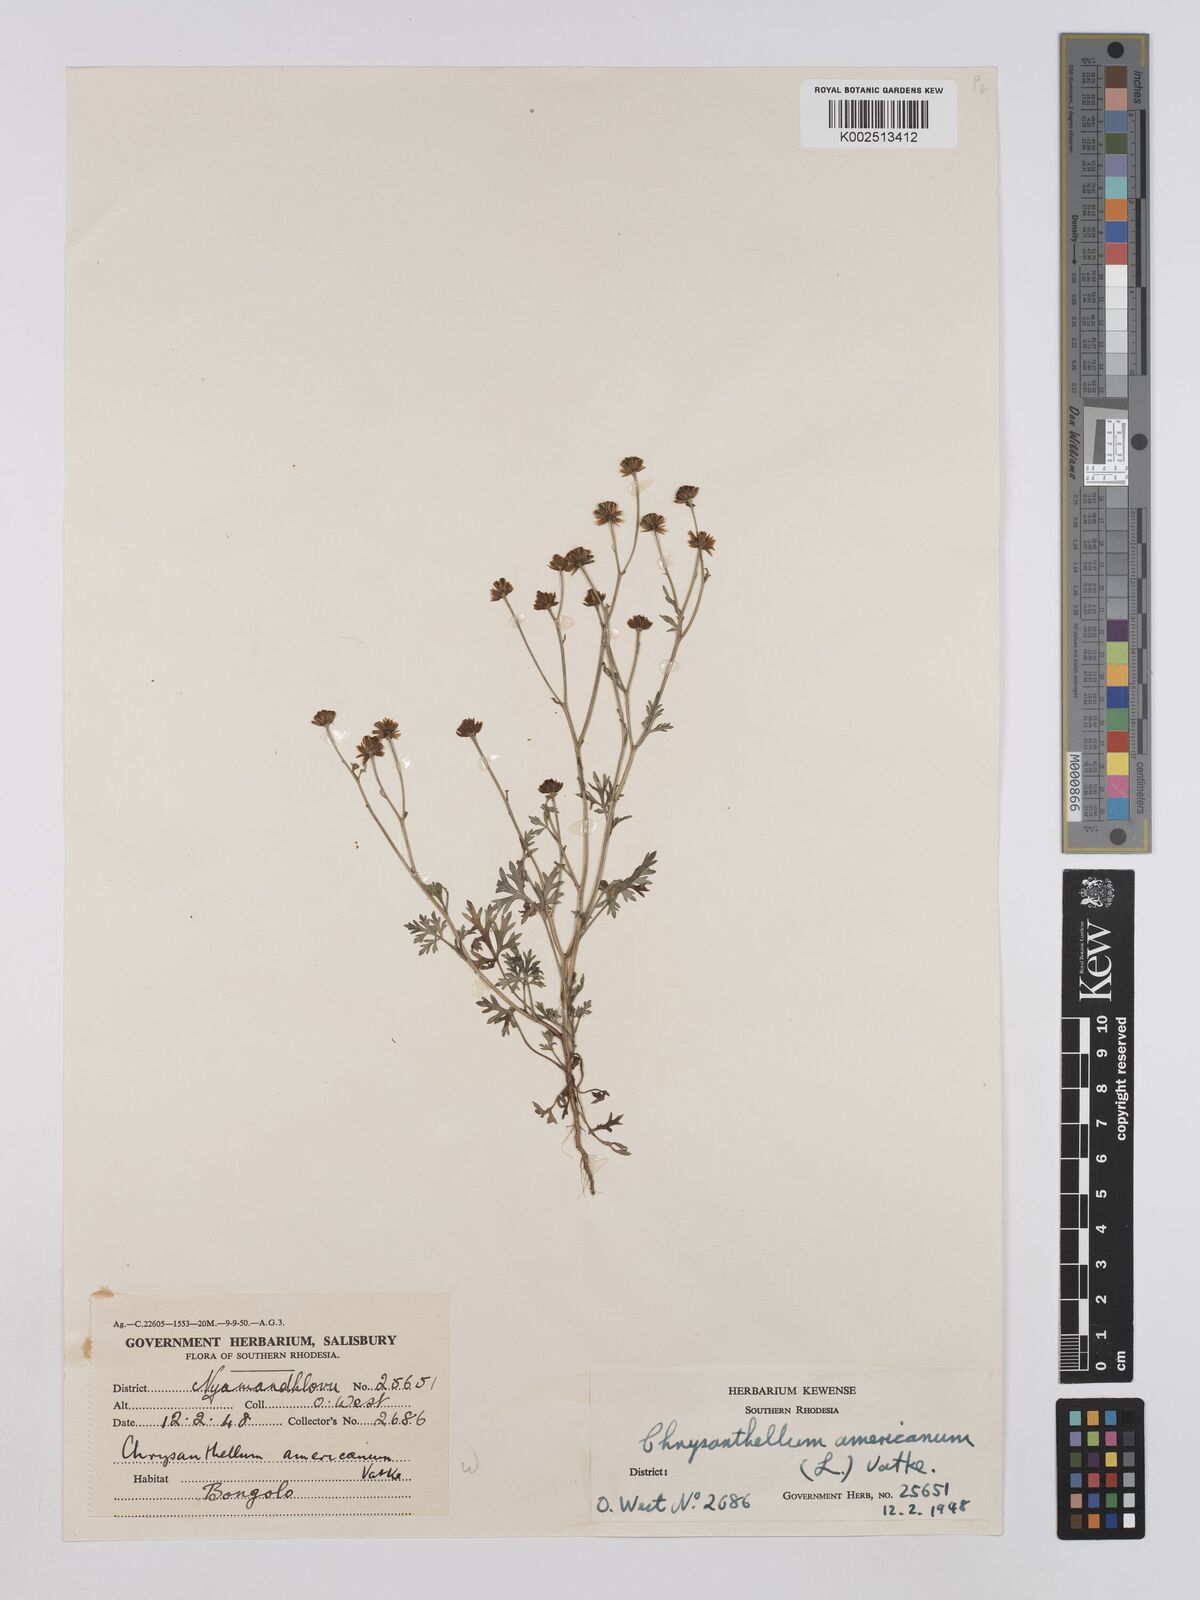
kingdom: Plantae
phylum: Tracheophyta
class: Magnoliopsida
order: Asterales
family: Asteraceae
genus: Chrysanthellum
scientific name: Chrysanthellum indicum
